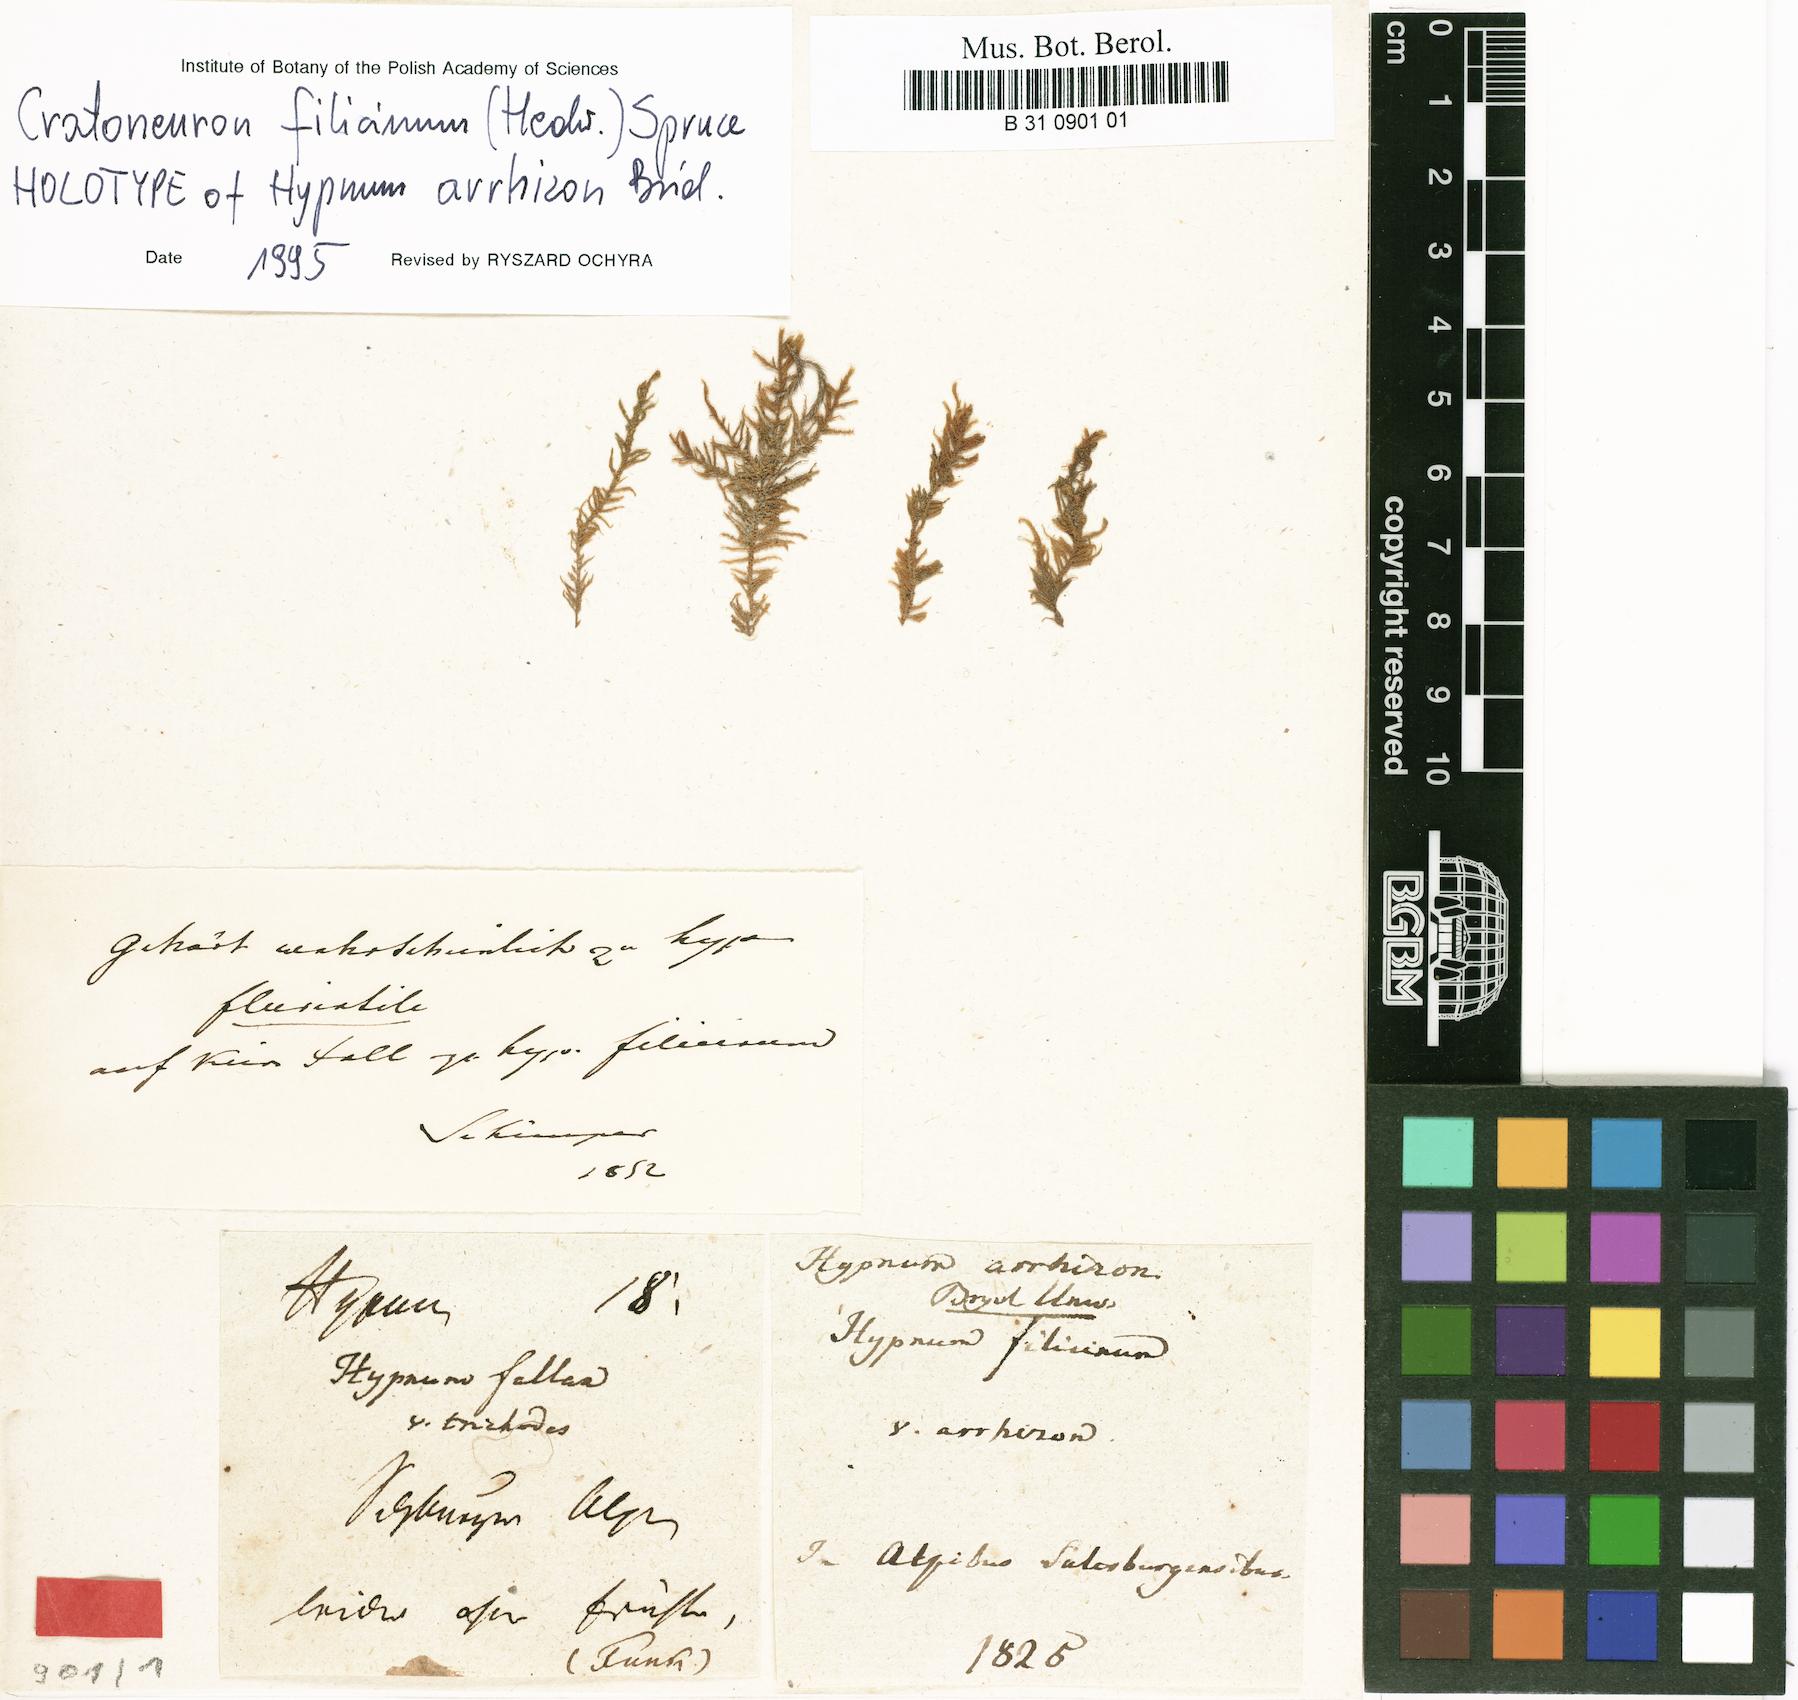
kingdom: Plantae
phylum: Bryophyta
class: Bryopsida
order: Hypnales
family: Amblystegiaceae
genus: Cratoneuron
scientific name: Cratoneuron filicinum
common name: Fern-leaved hook moss
